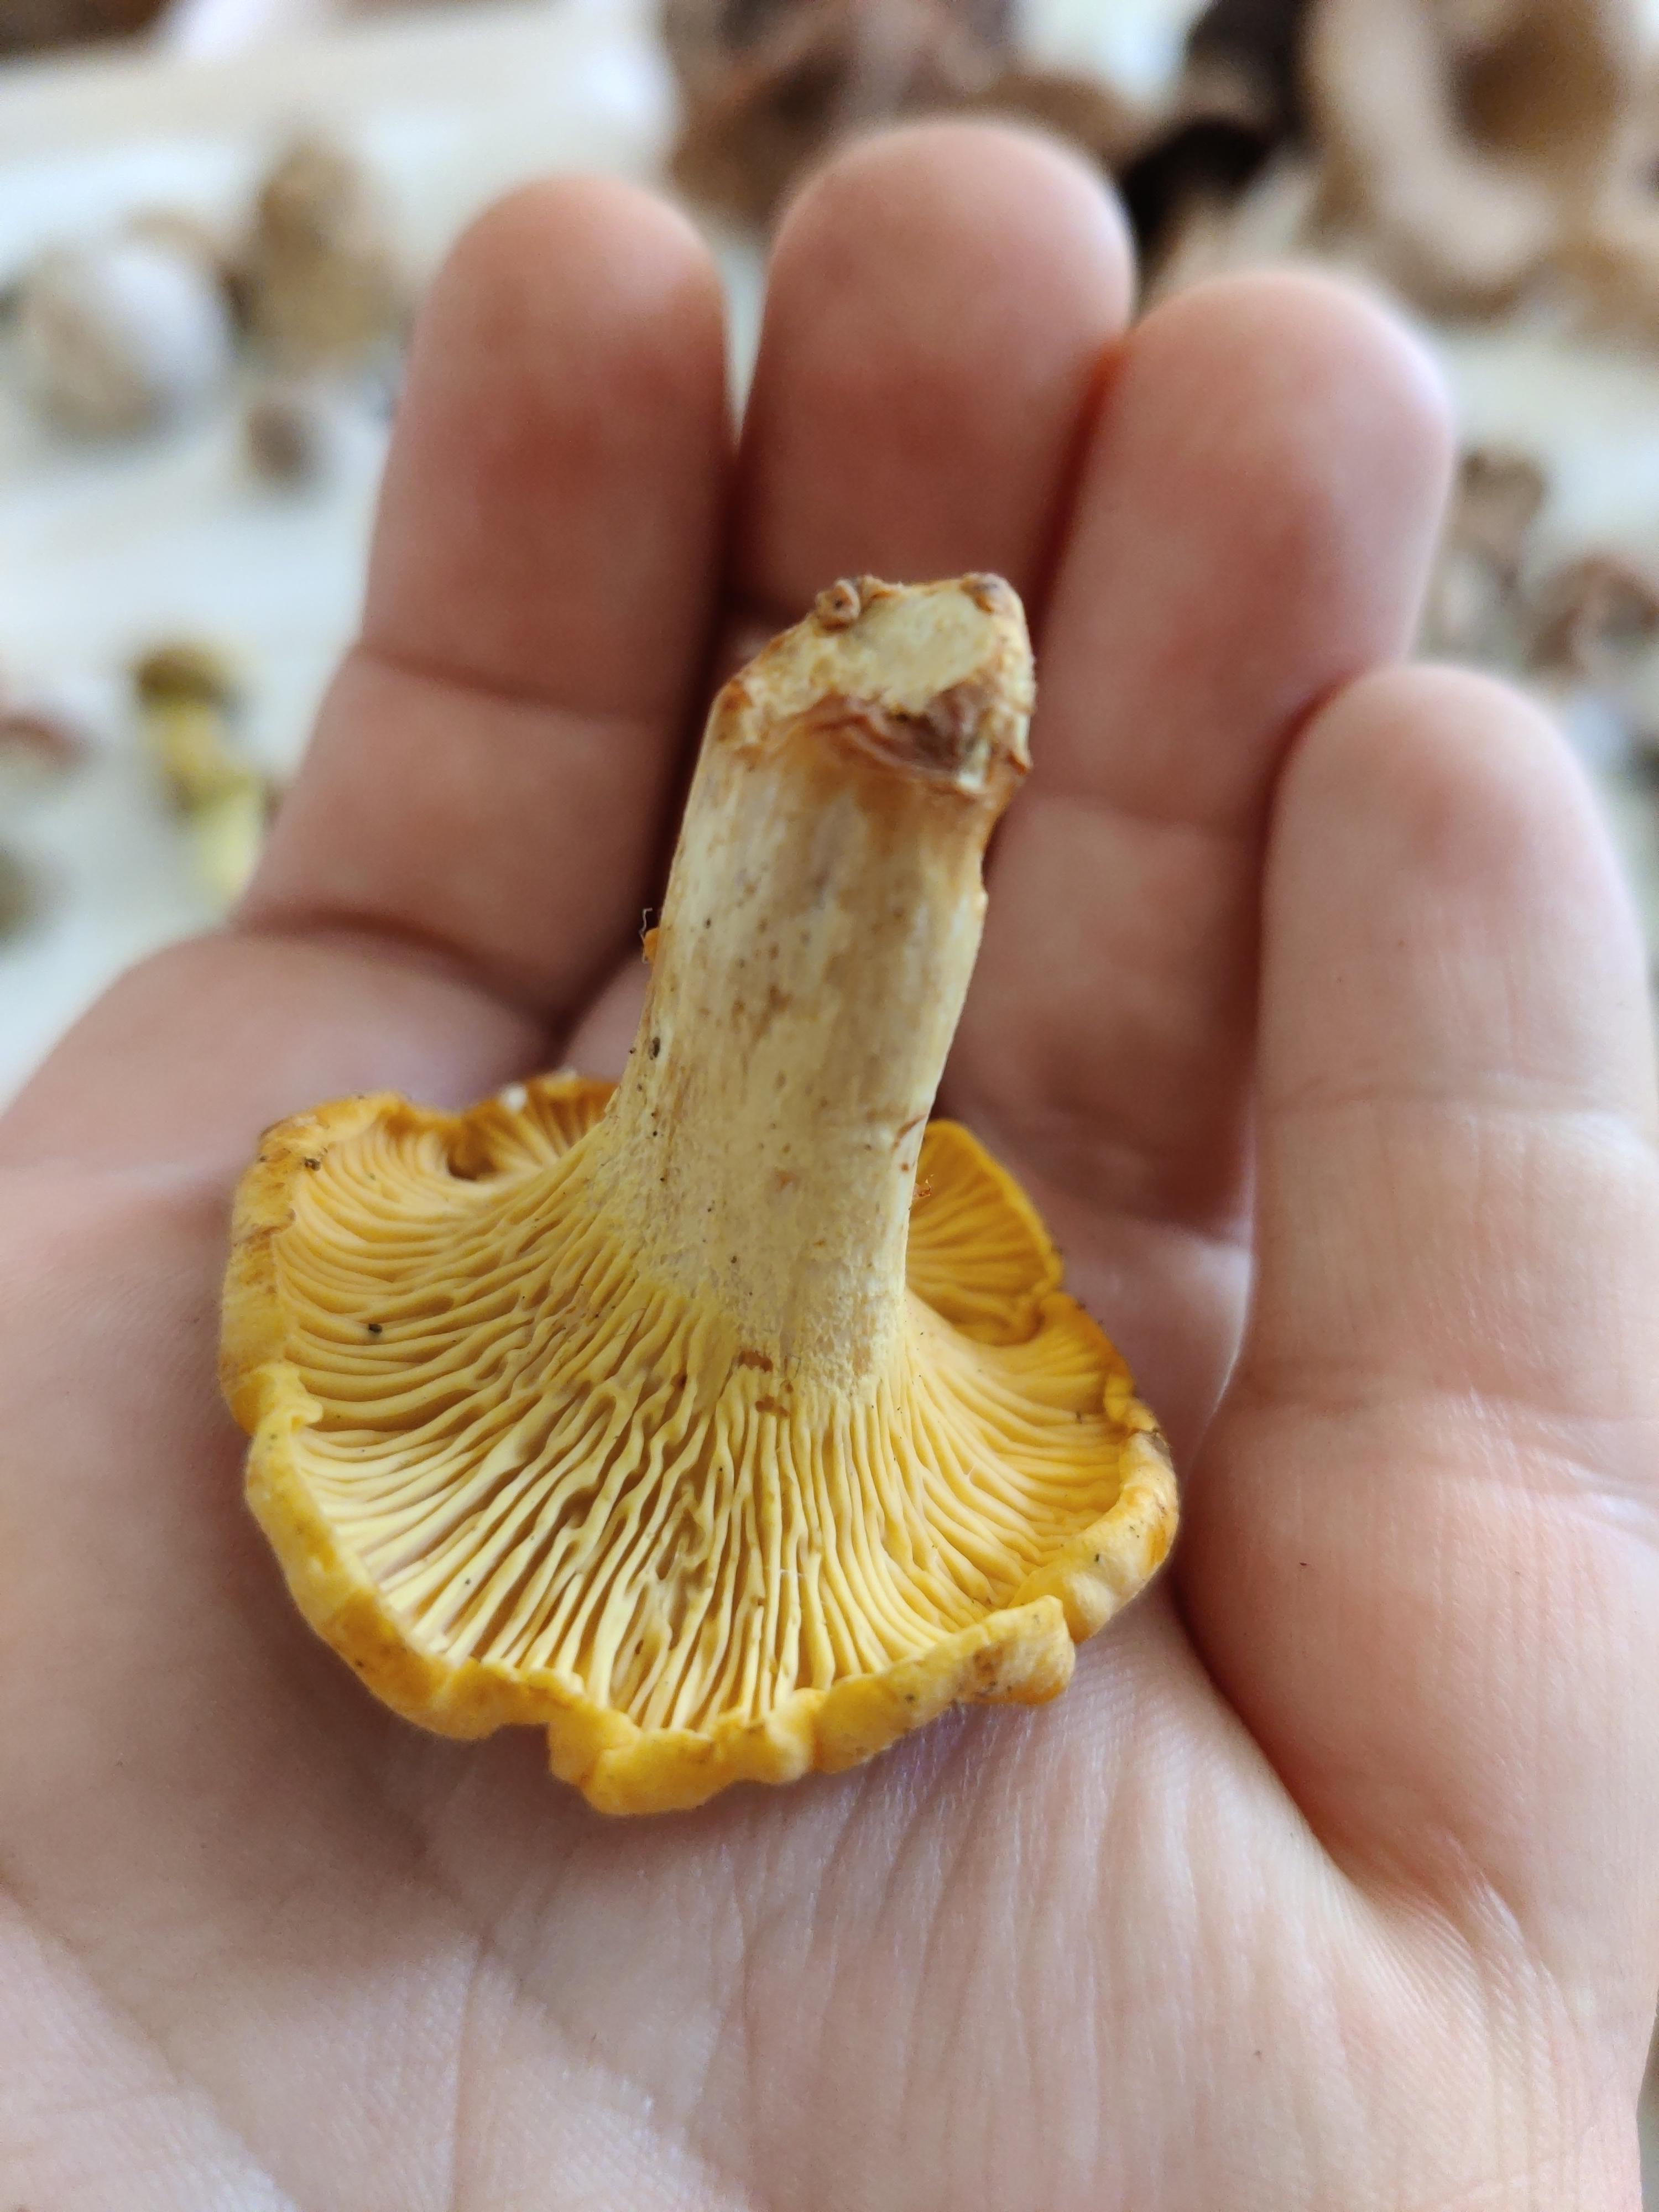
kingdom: Fungi
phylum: Basidiomycota
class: Agaricomycetes
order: Cantharellales
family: Hydnaceae
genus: Cantharellus
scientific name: Cantharellus
